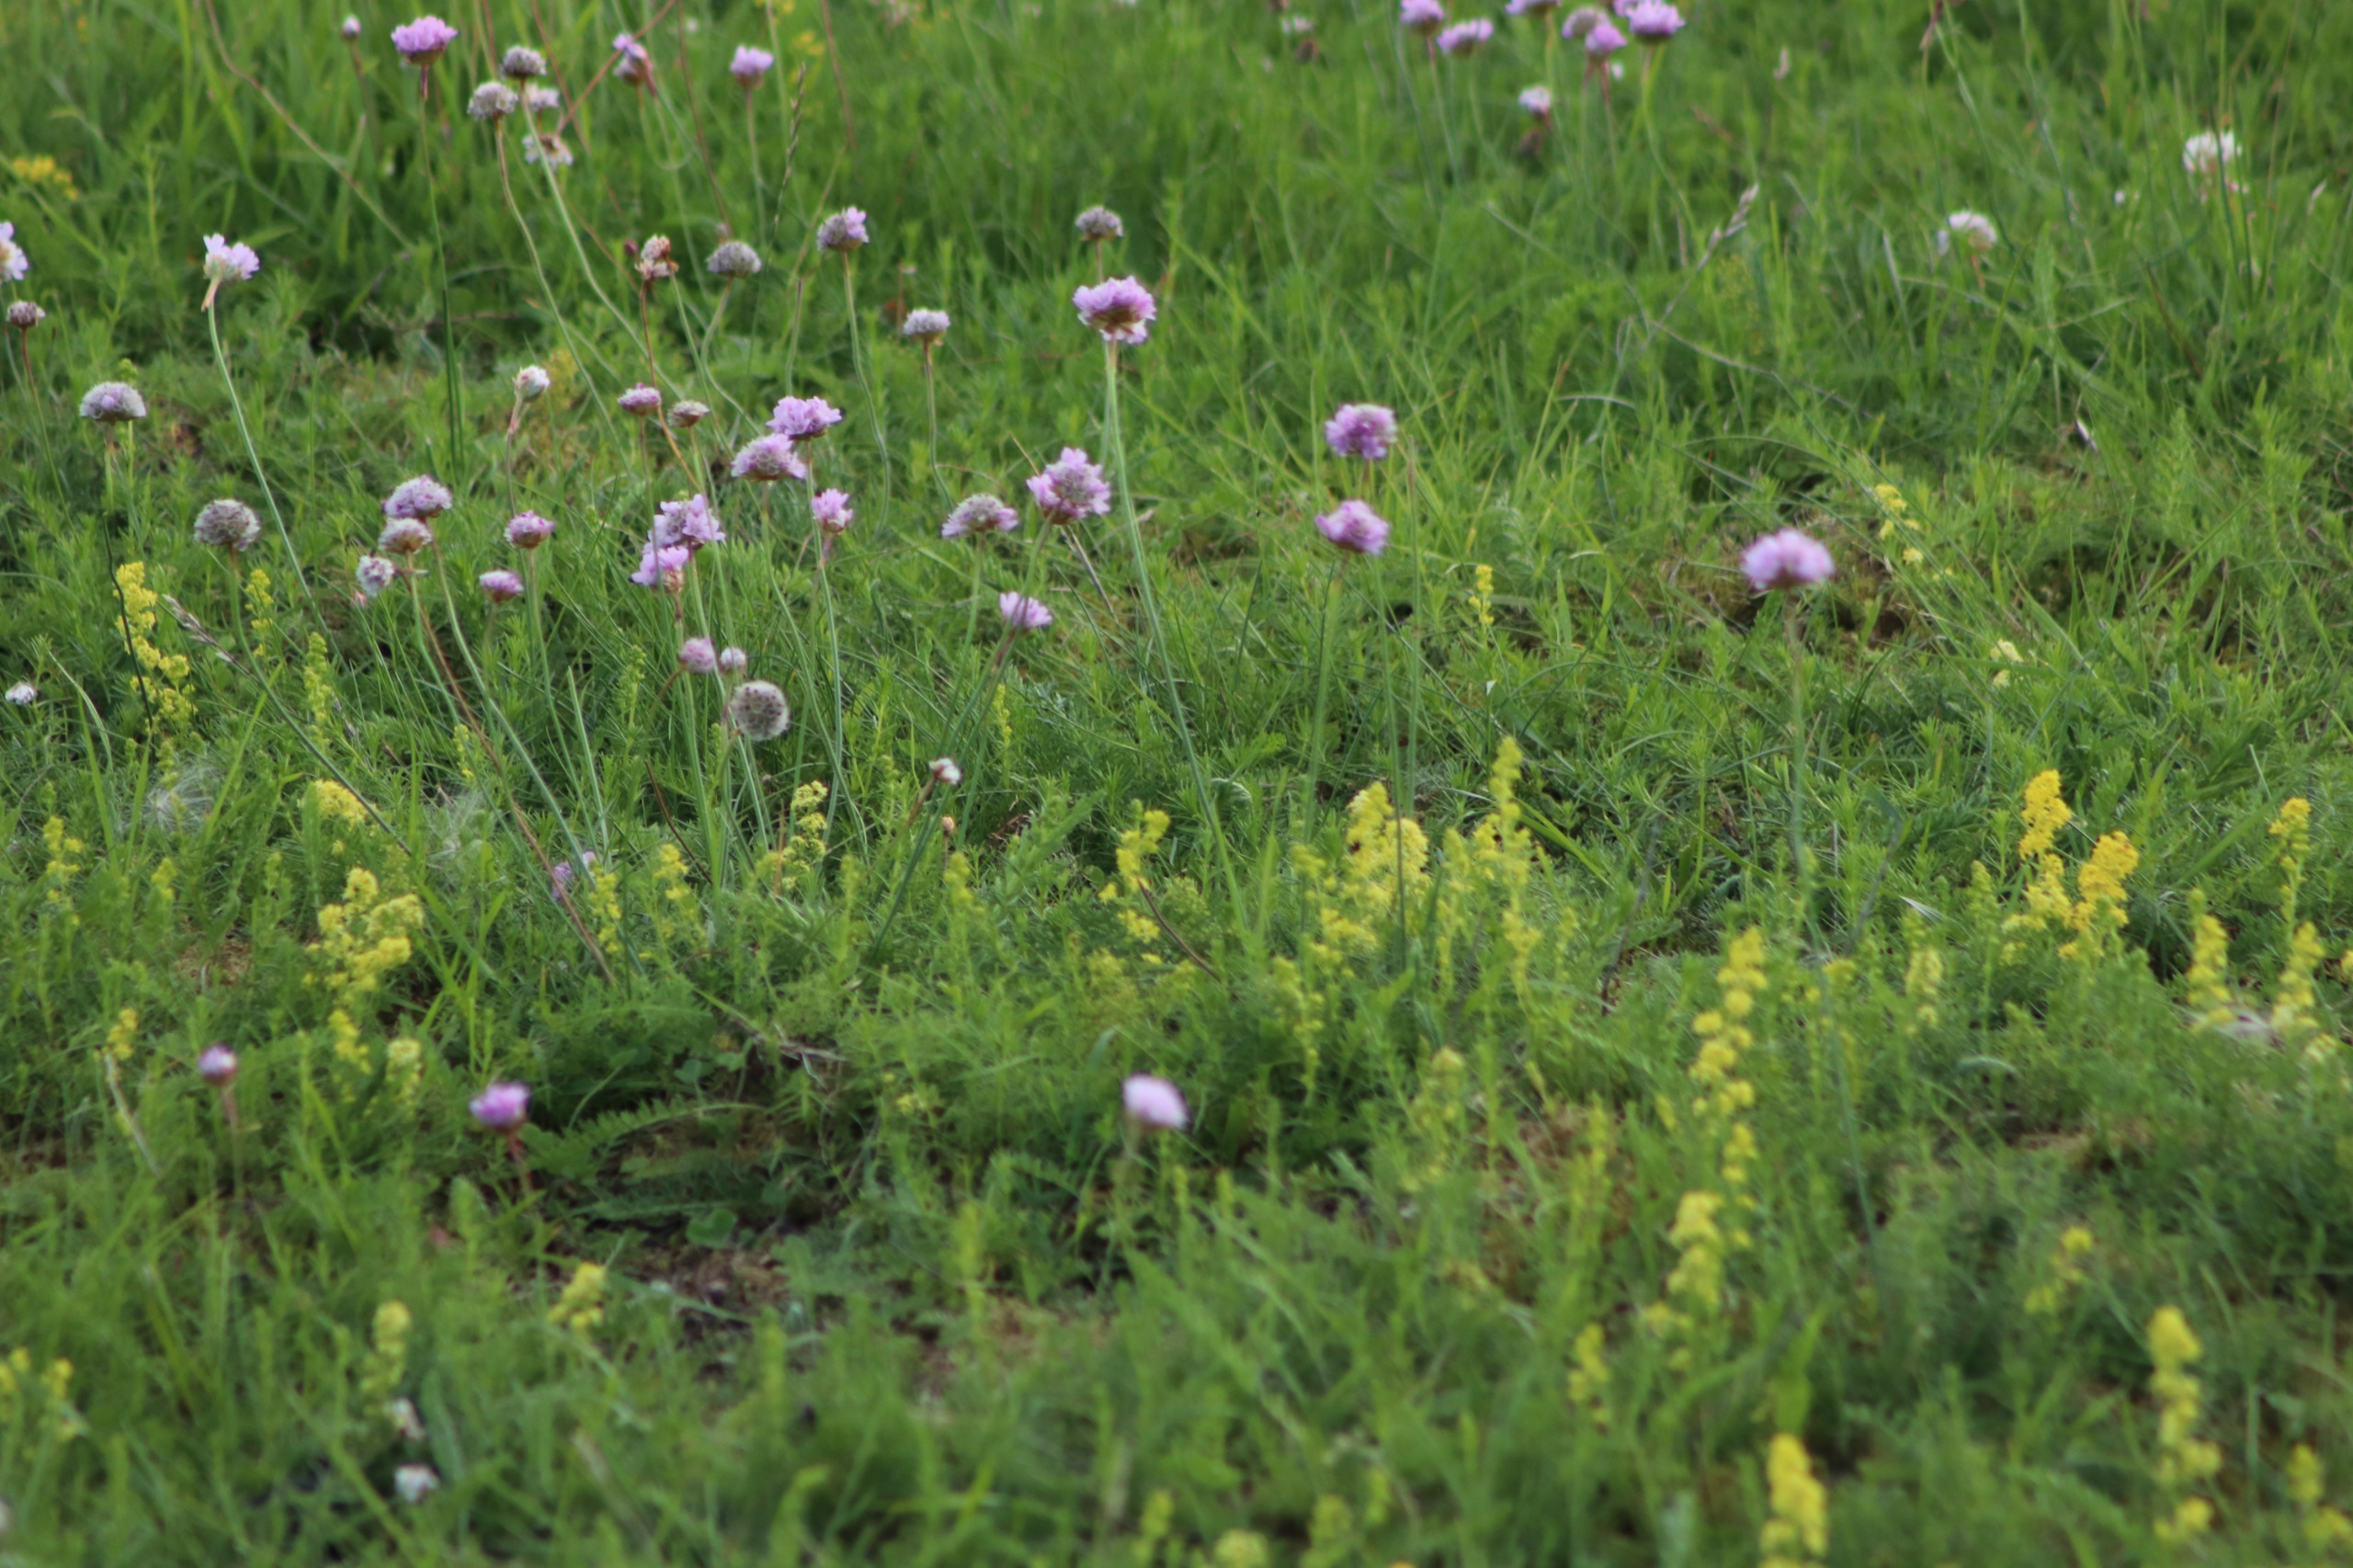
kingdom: Plantae
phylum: Tracheophyta
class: Magnoliopsida
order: Caryophyllales
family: Plumbaginaceae
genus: Armeria
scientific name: Armeria maritima
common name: Engelskgræs
